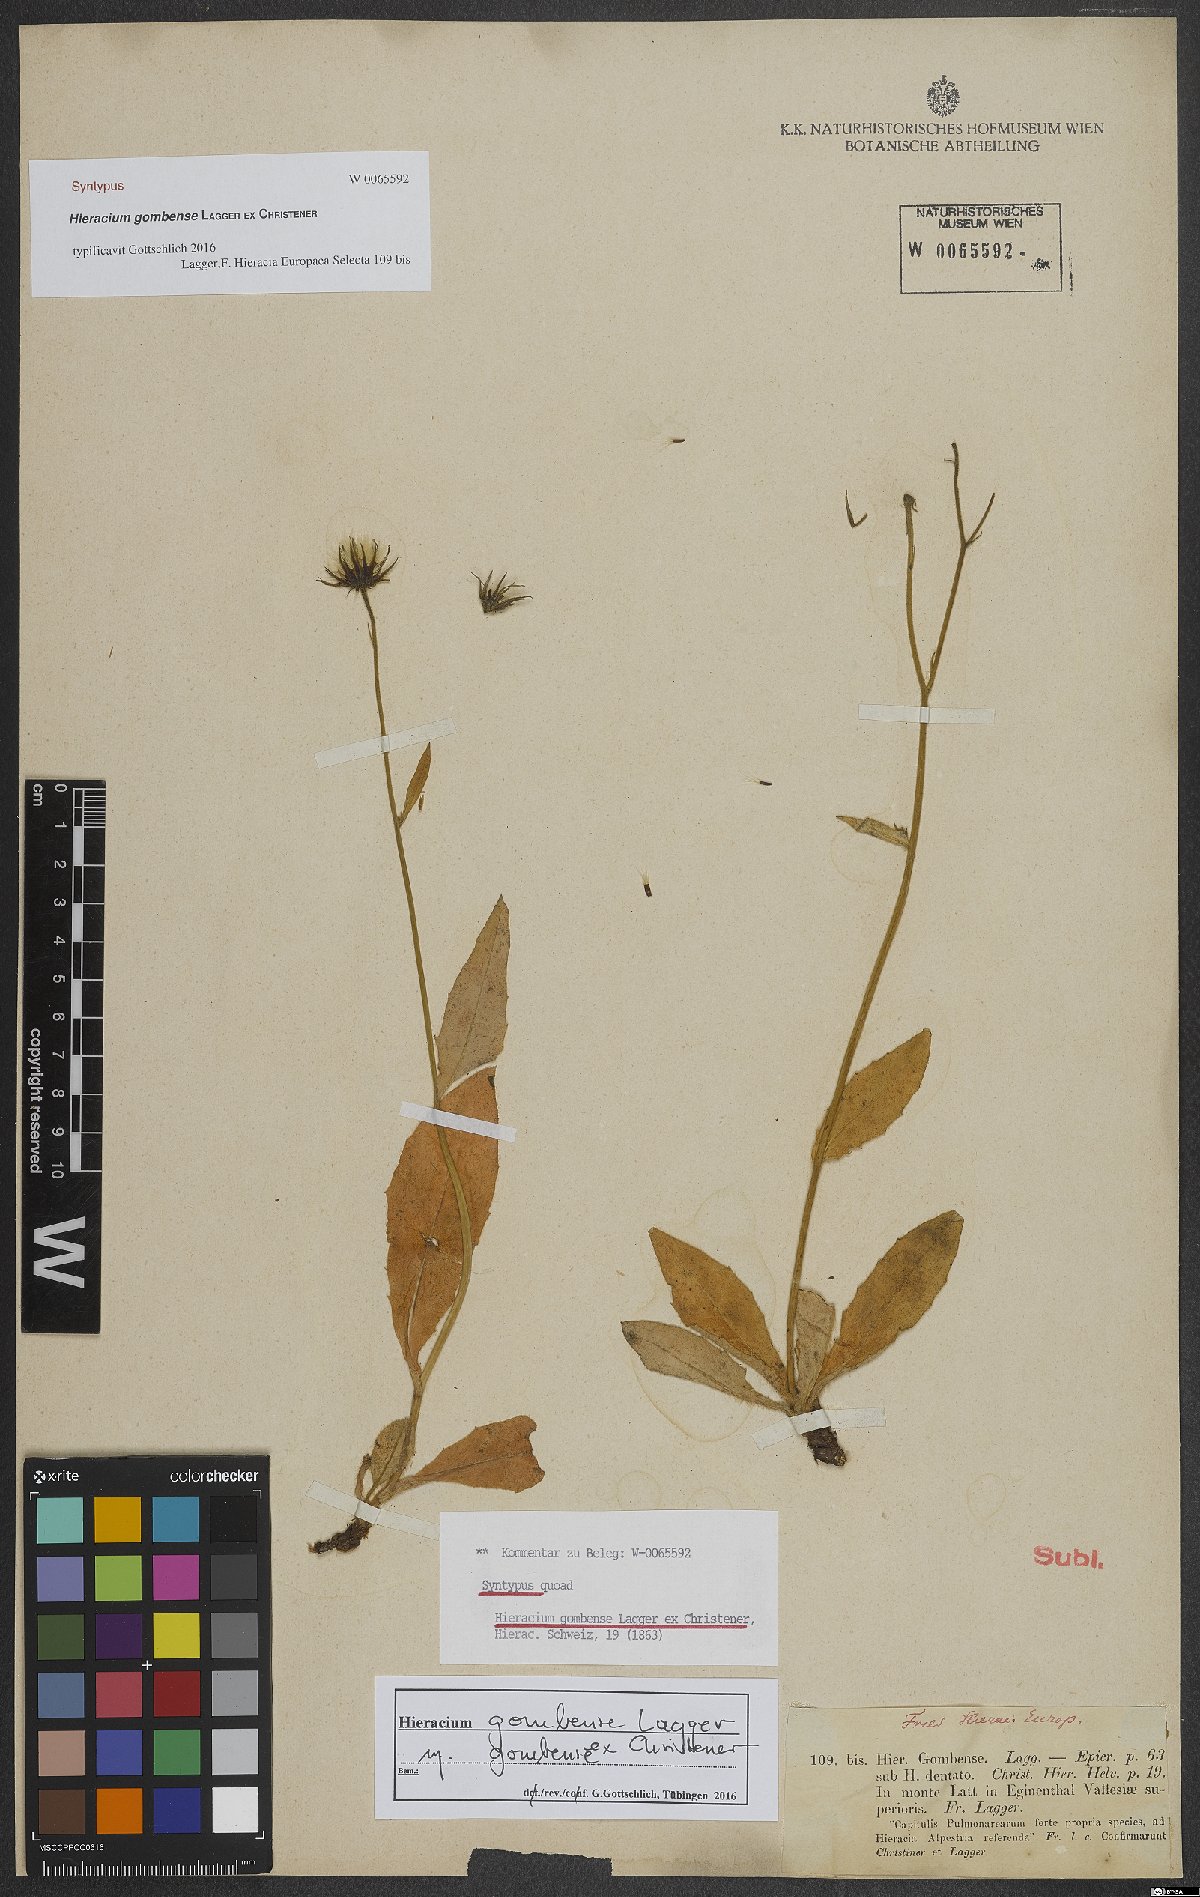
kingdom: Plantae
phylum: Tracheophyta
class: Magnoliopsida
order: Asterales
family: Asteraceae
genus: Hieracium
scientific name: Hieracium gombense
